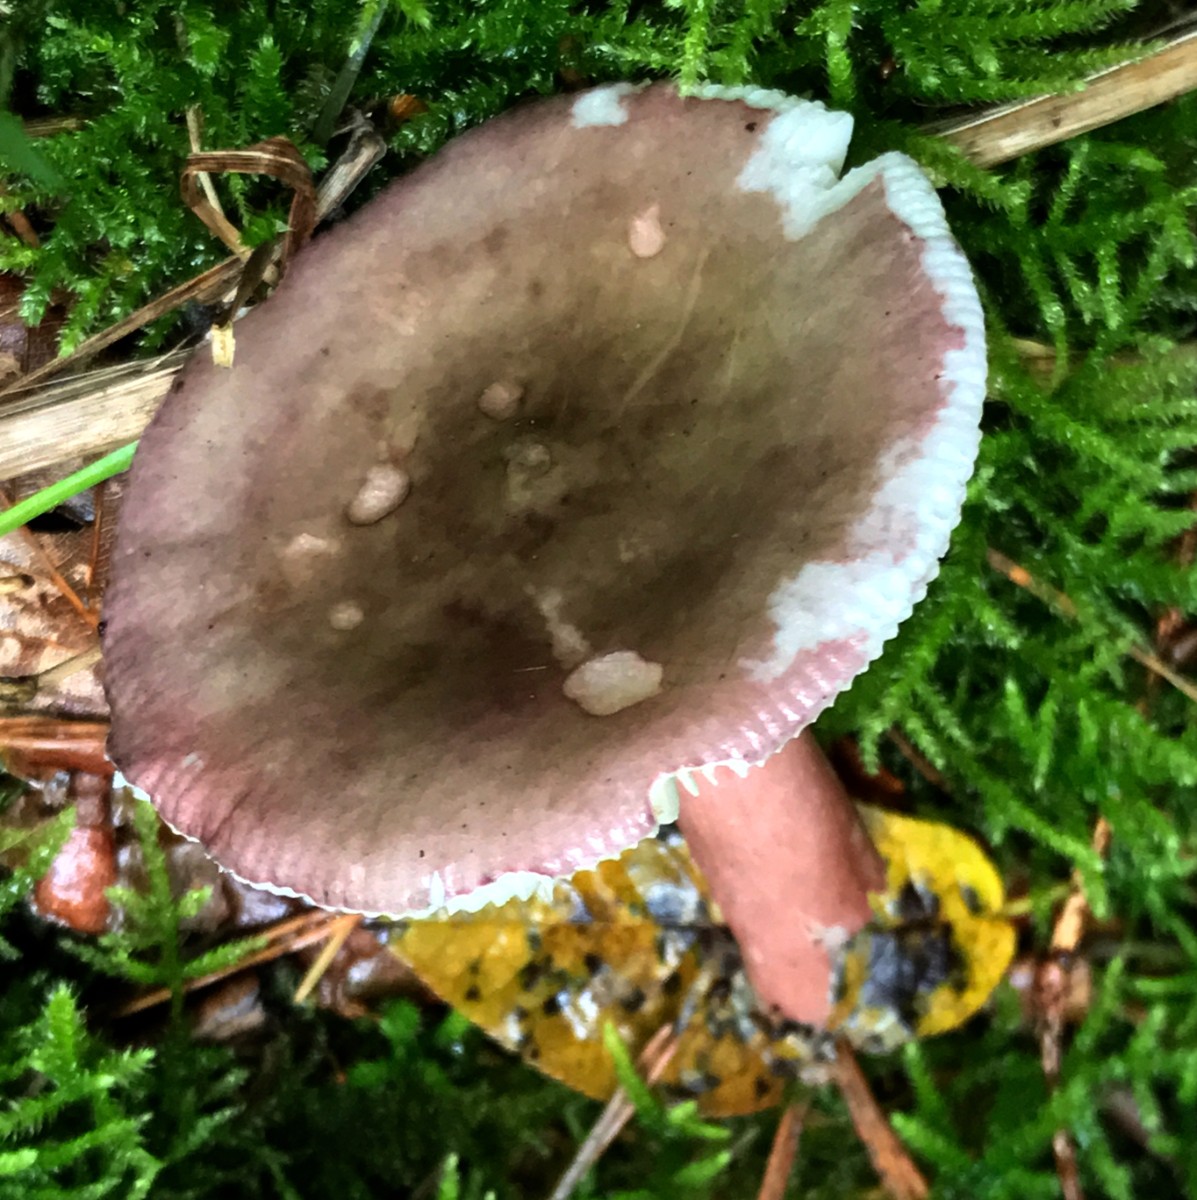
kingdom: Fungi
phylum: Basidiomycota
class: Agaricomycetes
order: Russulales
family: Russulaceae
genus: Russula
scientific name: Russula queletii
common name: Quélets skørhat
